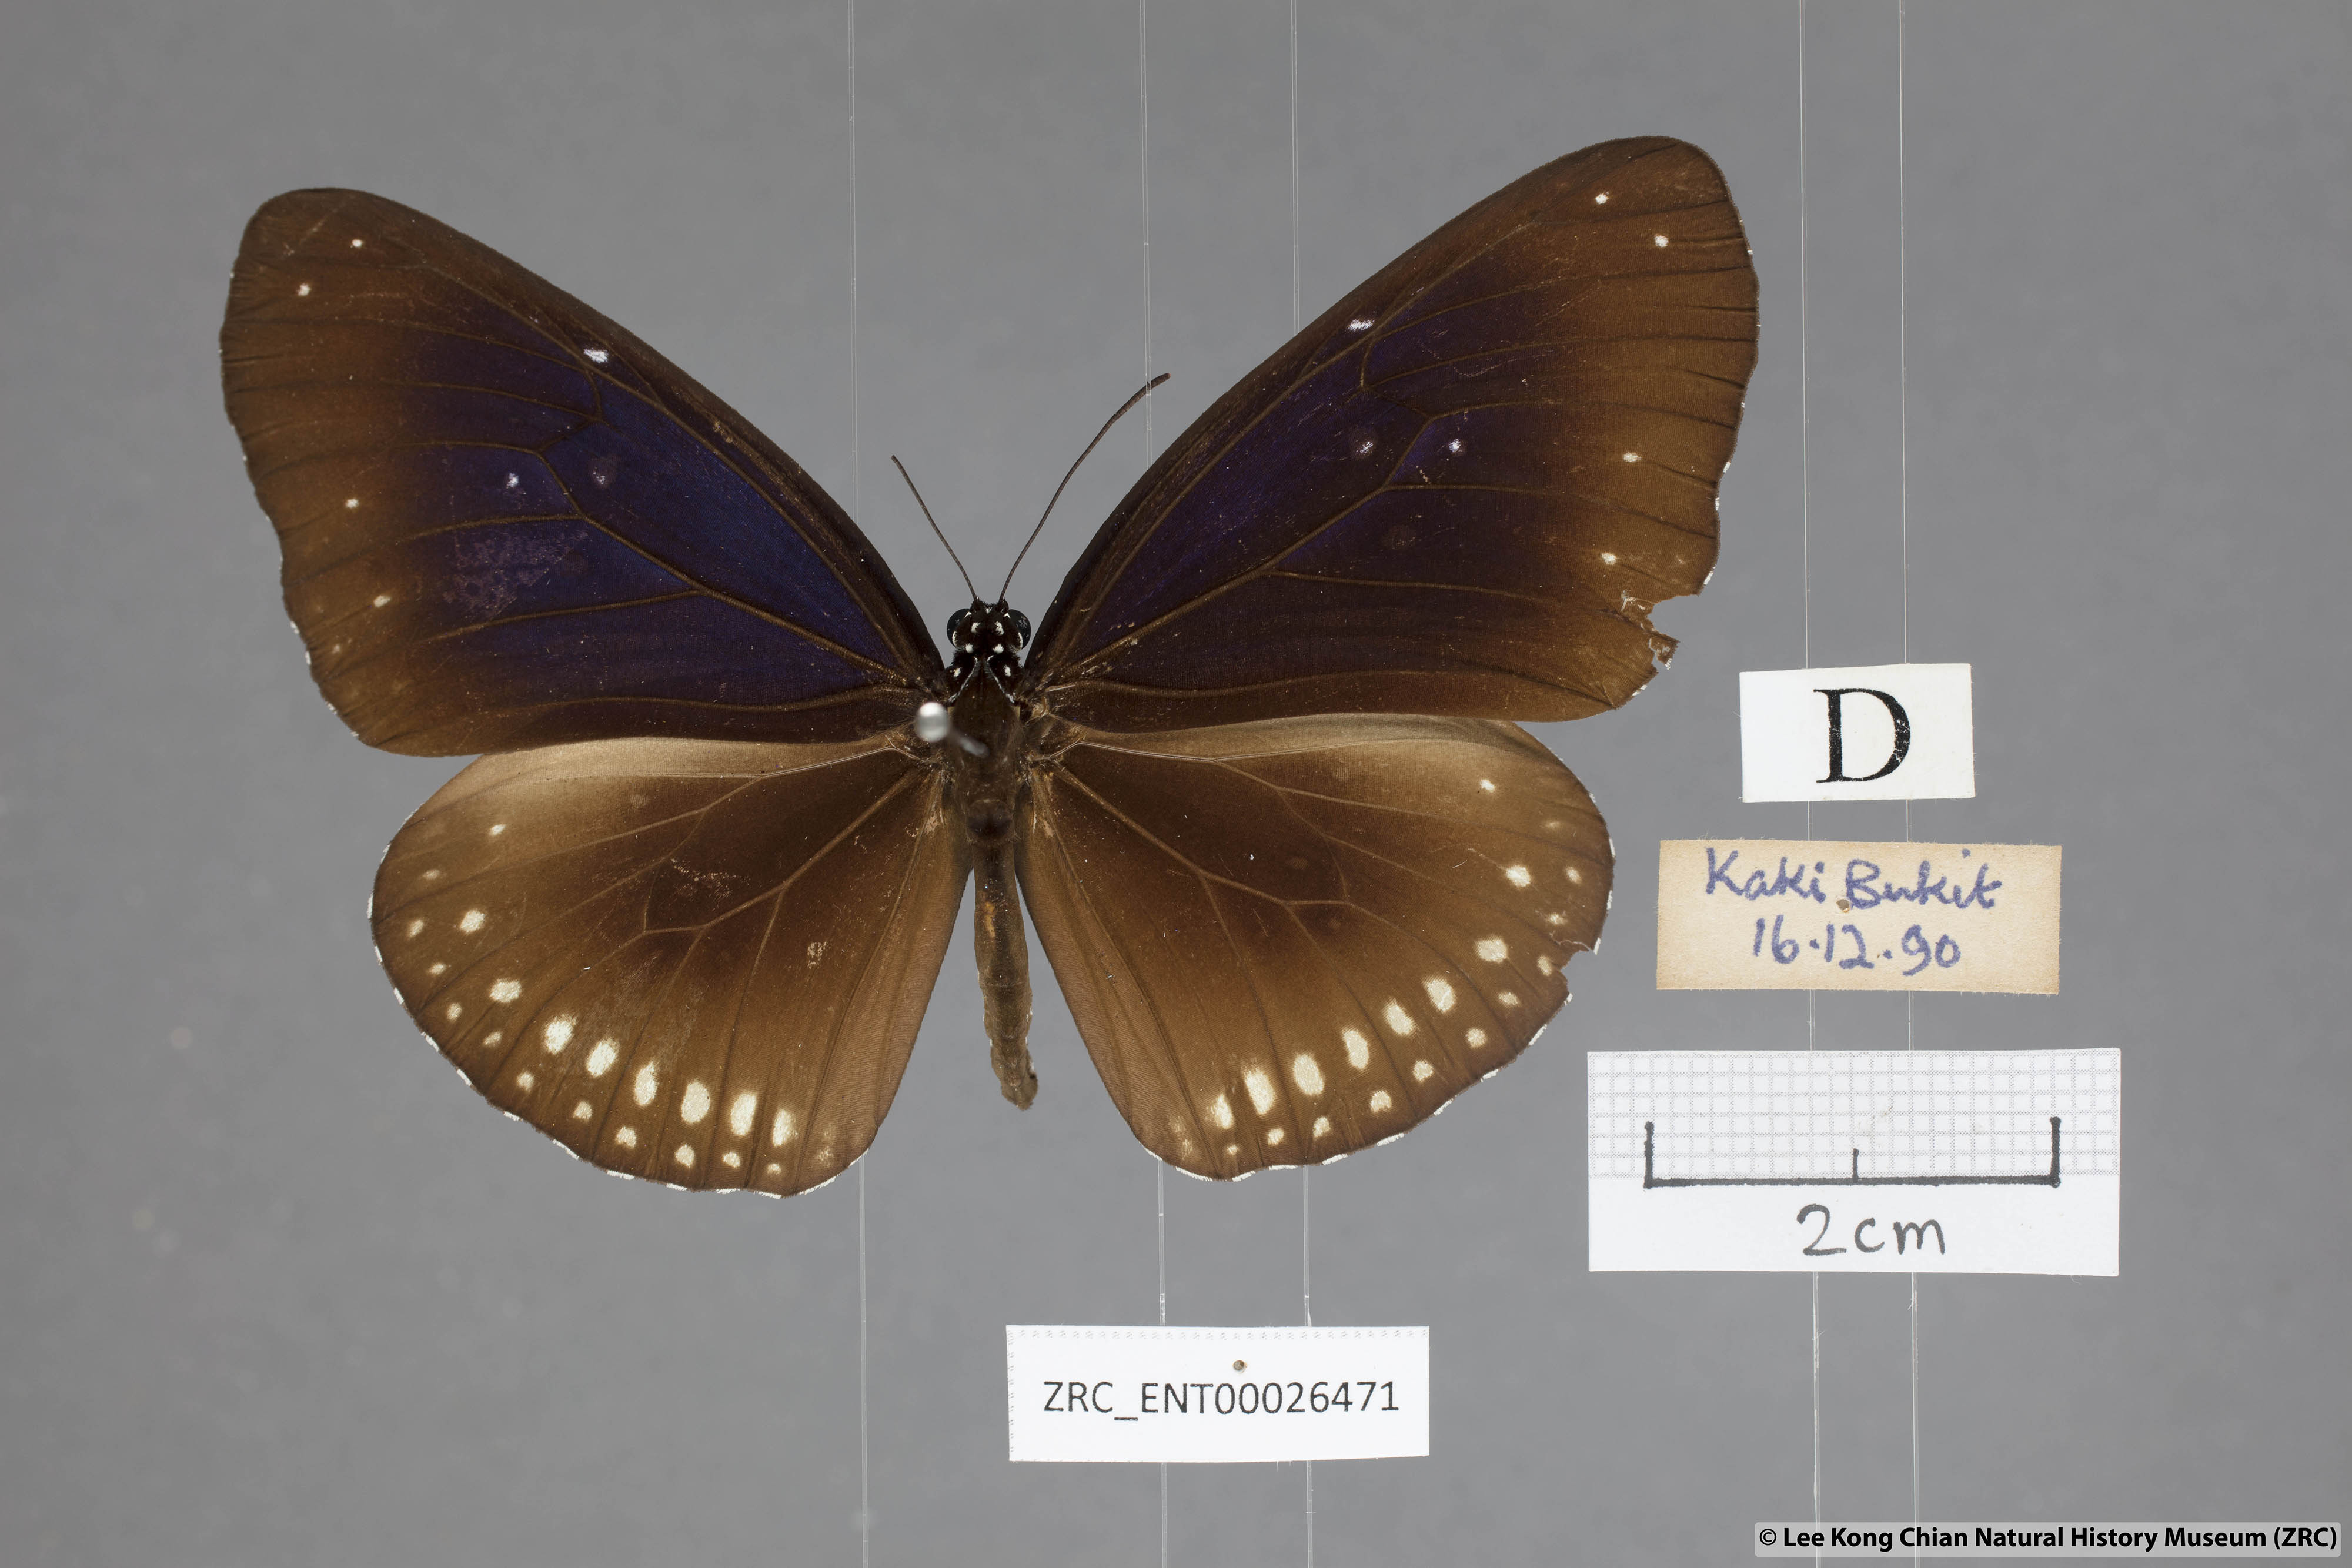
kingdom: Animalia
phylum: Arthropoda
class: Insecta
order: Lepidoptera
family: Nymphalidae
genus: Euploea
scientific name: Euploea modesta
